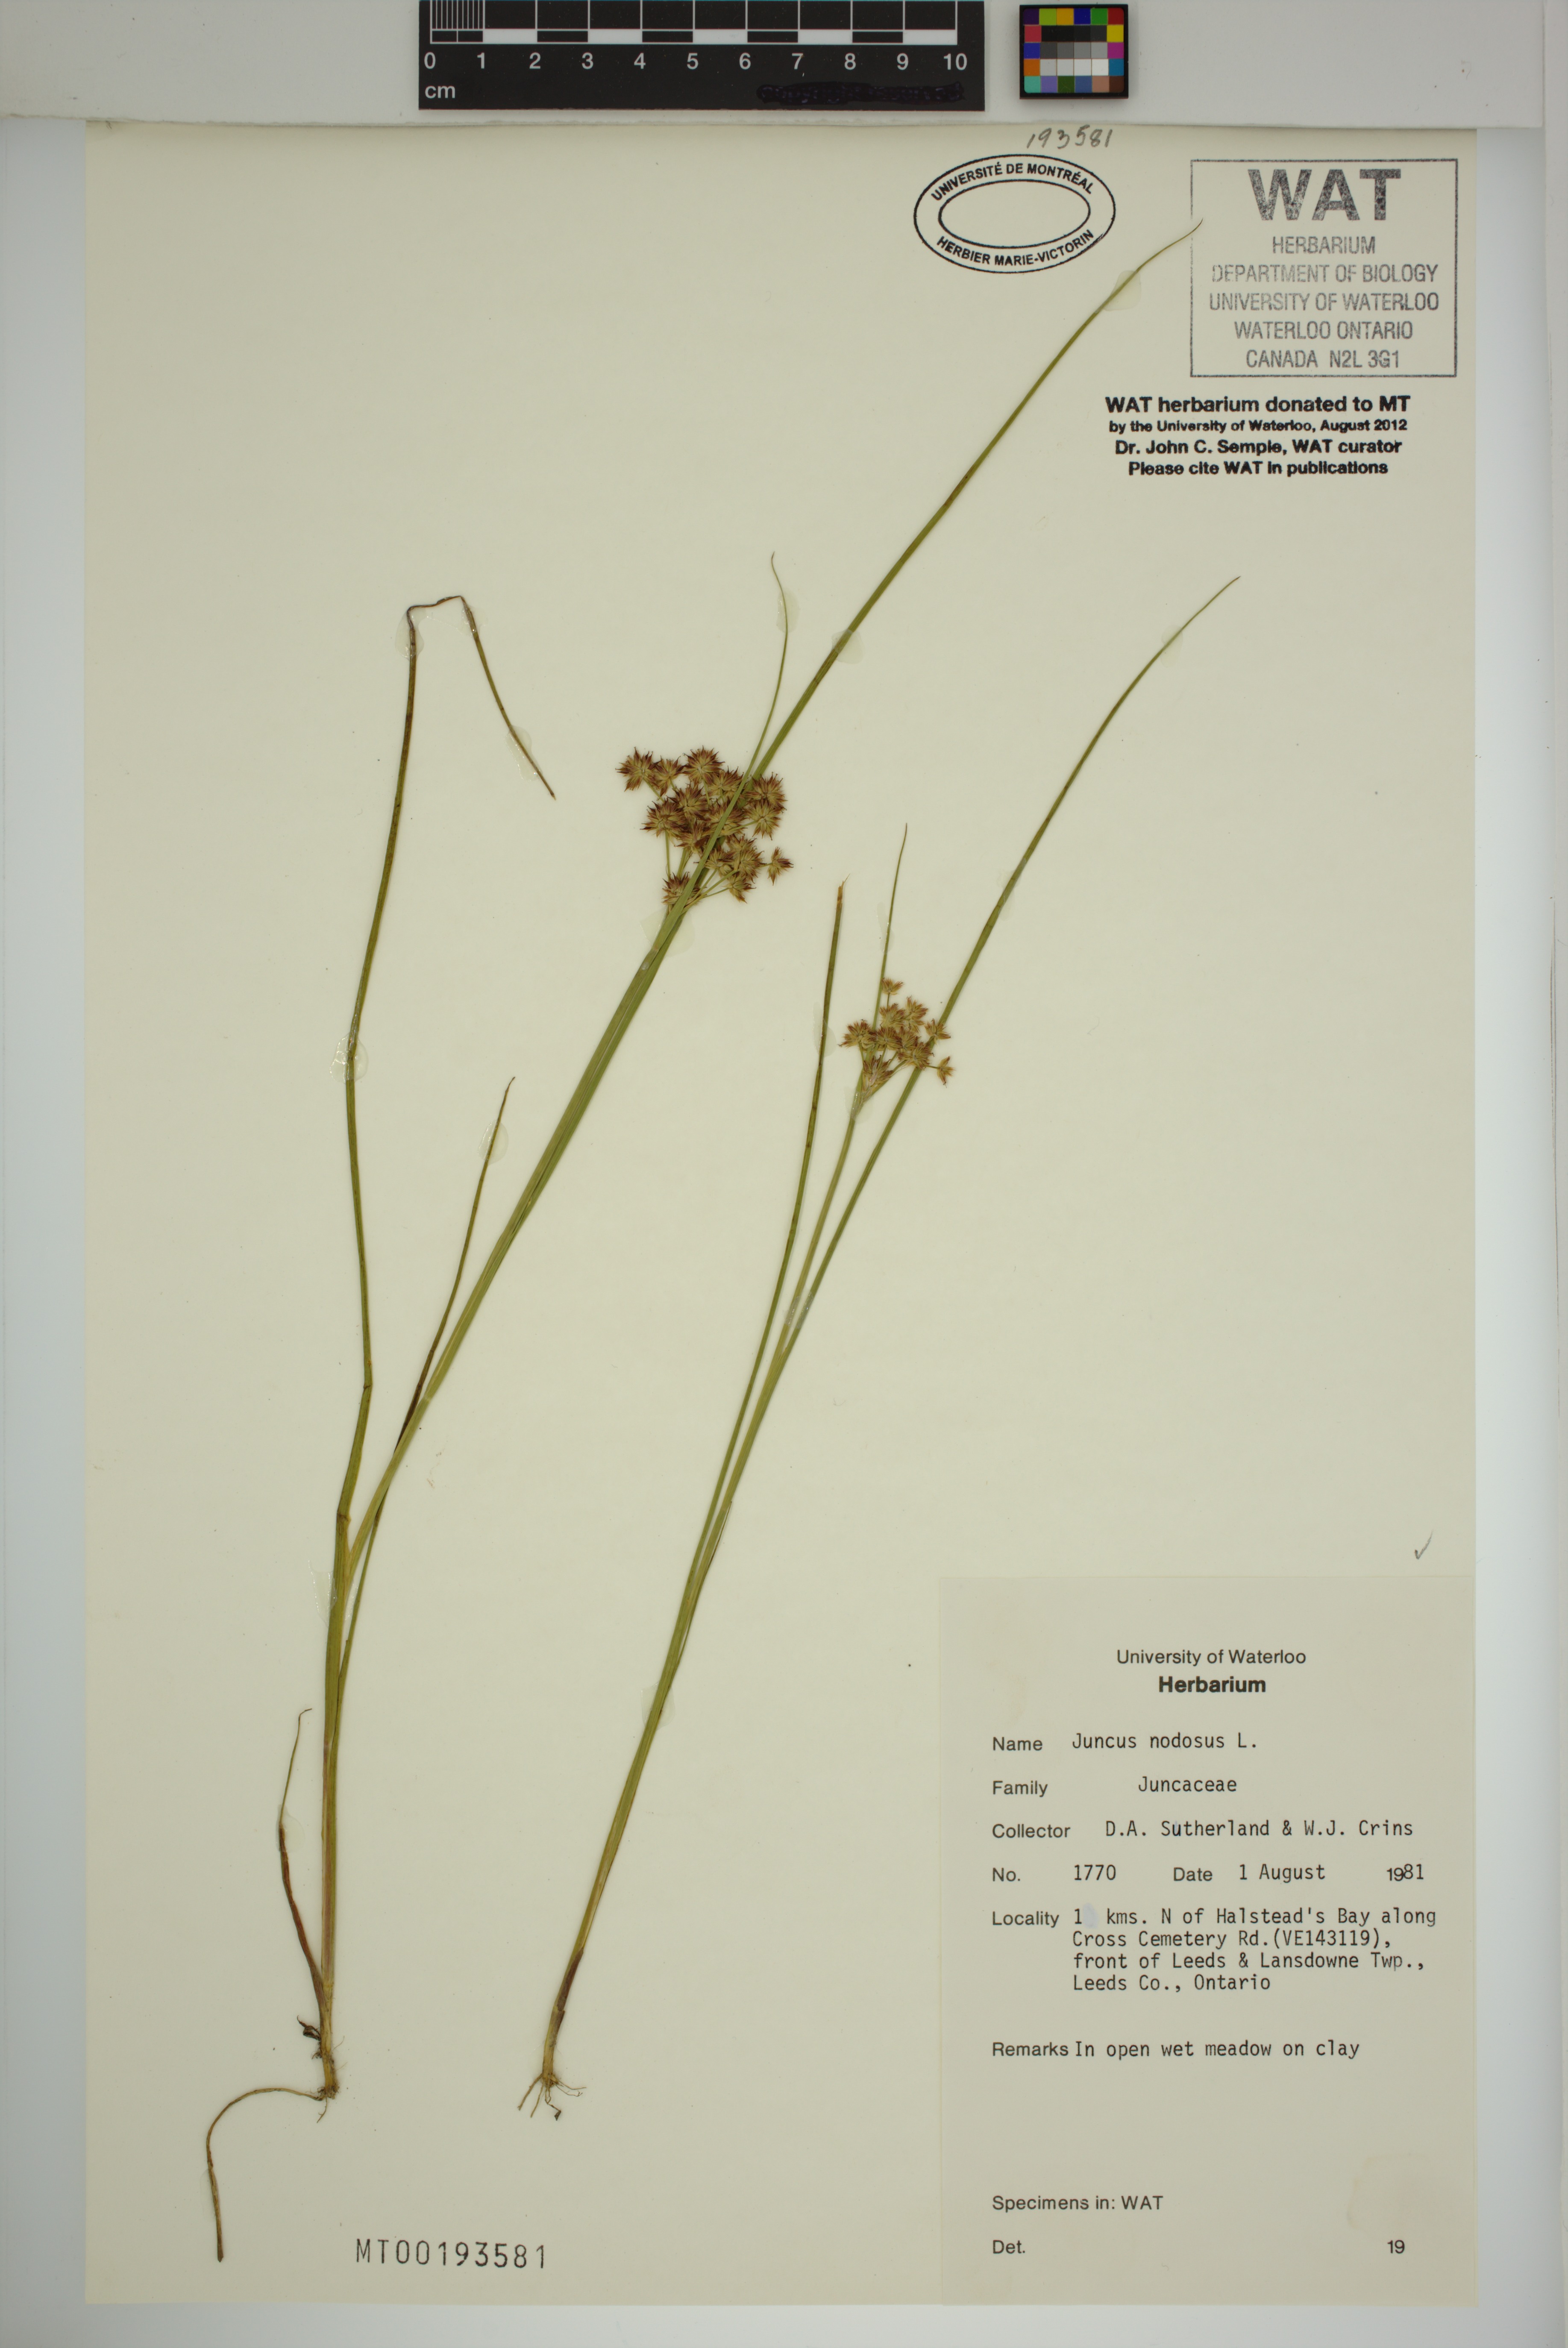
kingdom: Plantae
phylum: Tracheophyta
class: Liliopsida
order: Poales
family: Juncaceae
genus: Juncus
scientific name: Juncus nodosus
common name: Knotted rush
